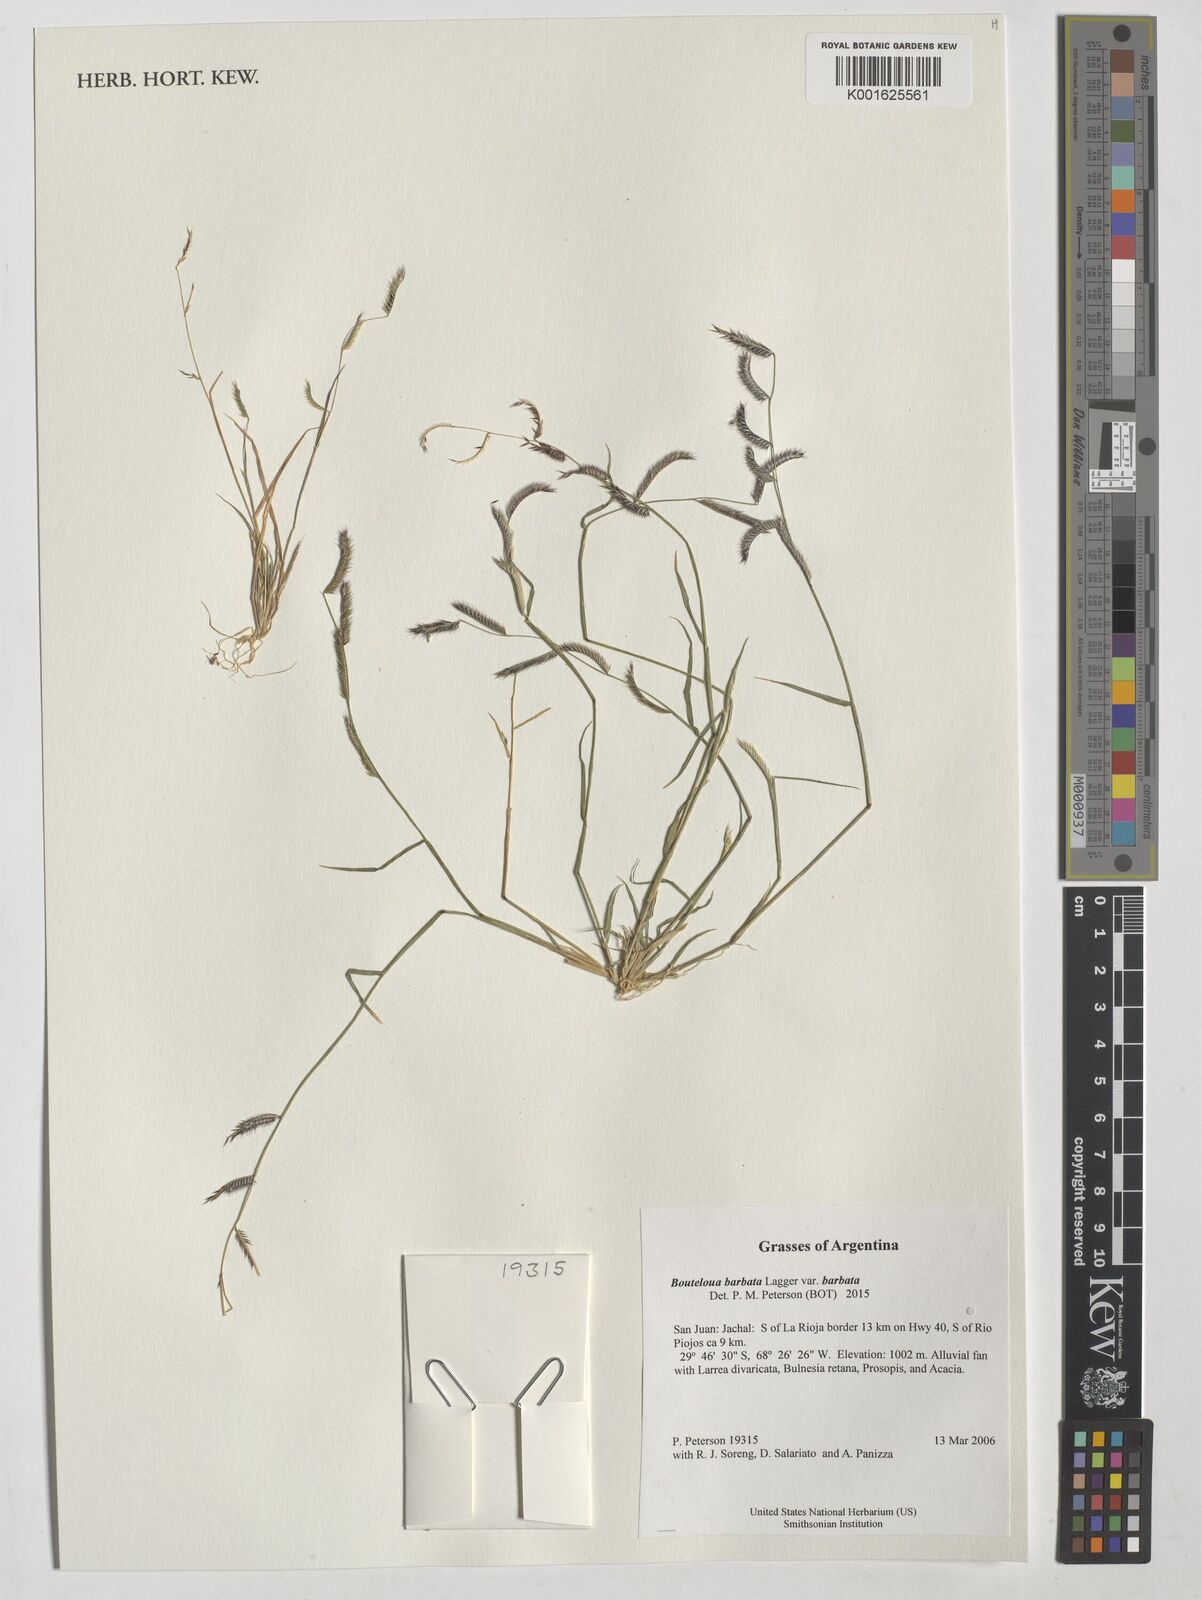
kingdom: Plantae
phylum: Tracheophyta
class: Liliopsida
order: Poales
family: Poaceae
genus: Bouteloua
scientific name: Bouteloua barbata
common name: Six-weeks grama
